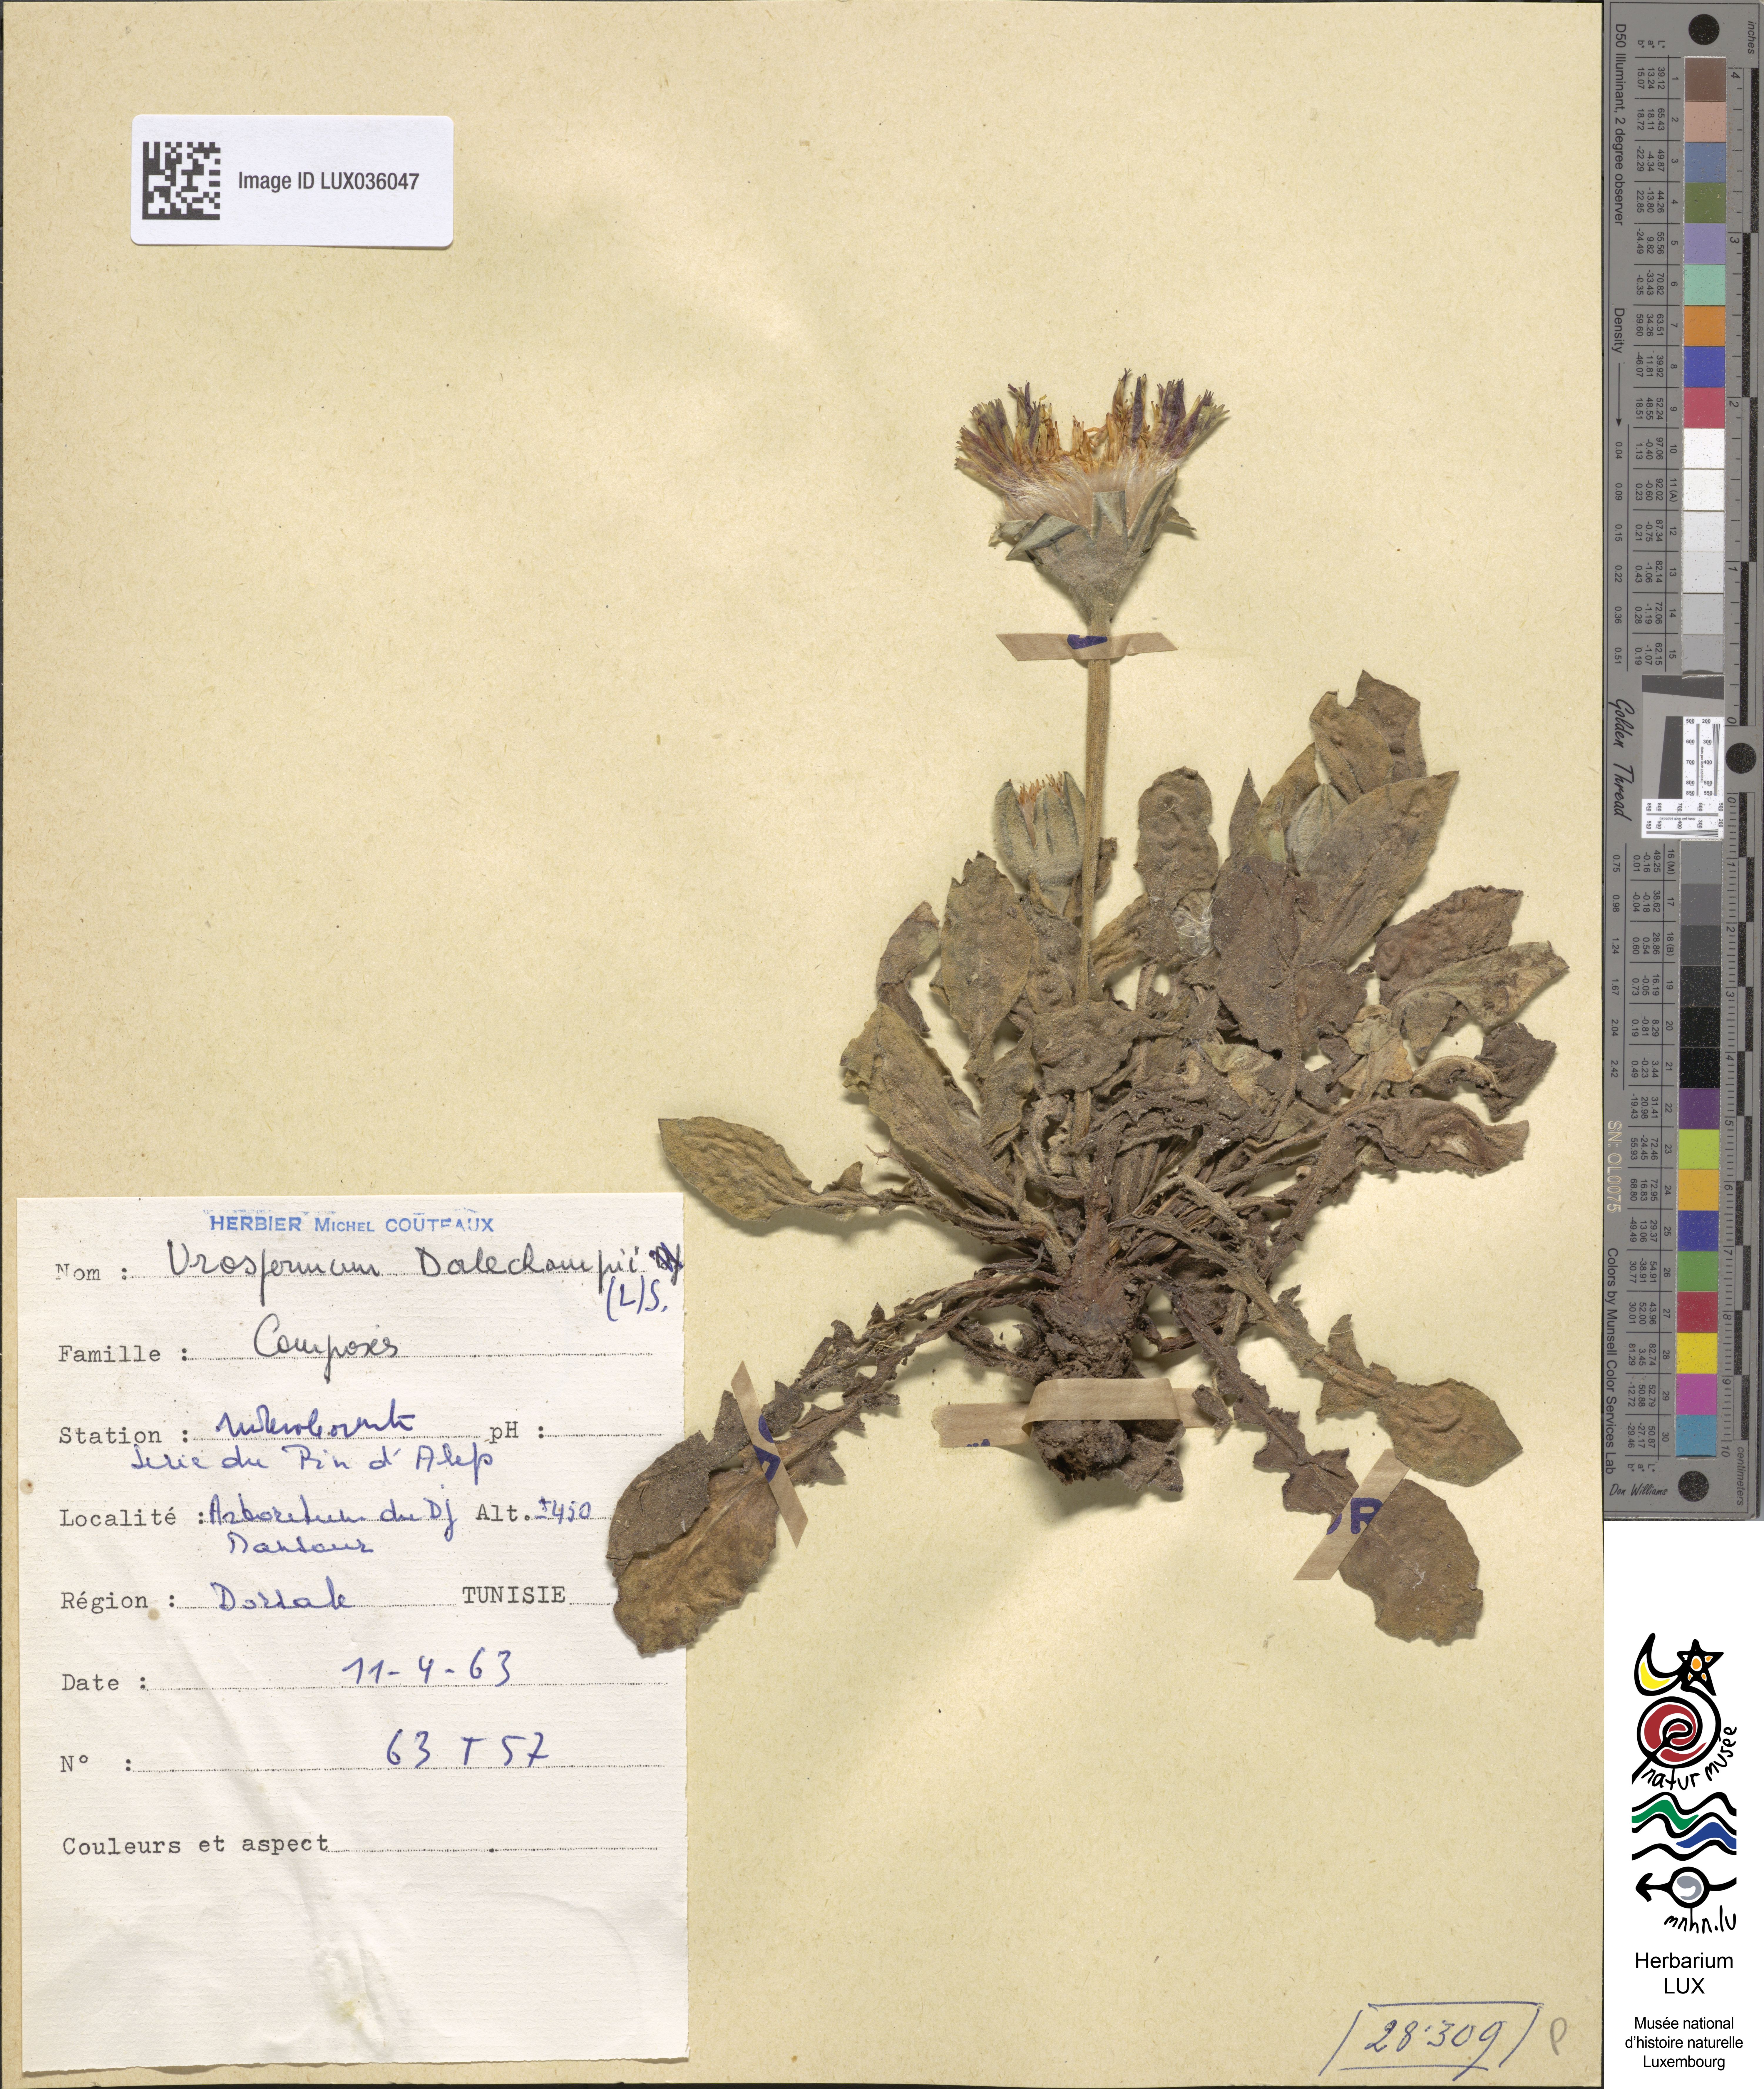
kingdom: Plantae
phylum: Tracheophyta
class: Magnoliopsida
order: Asterales
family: Asteraceae
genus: Urospermum
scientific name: Urospermum dalechampii
